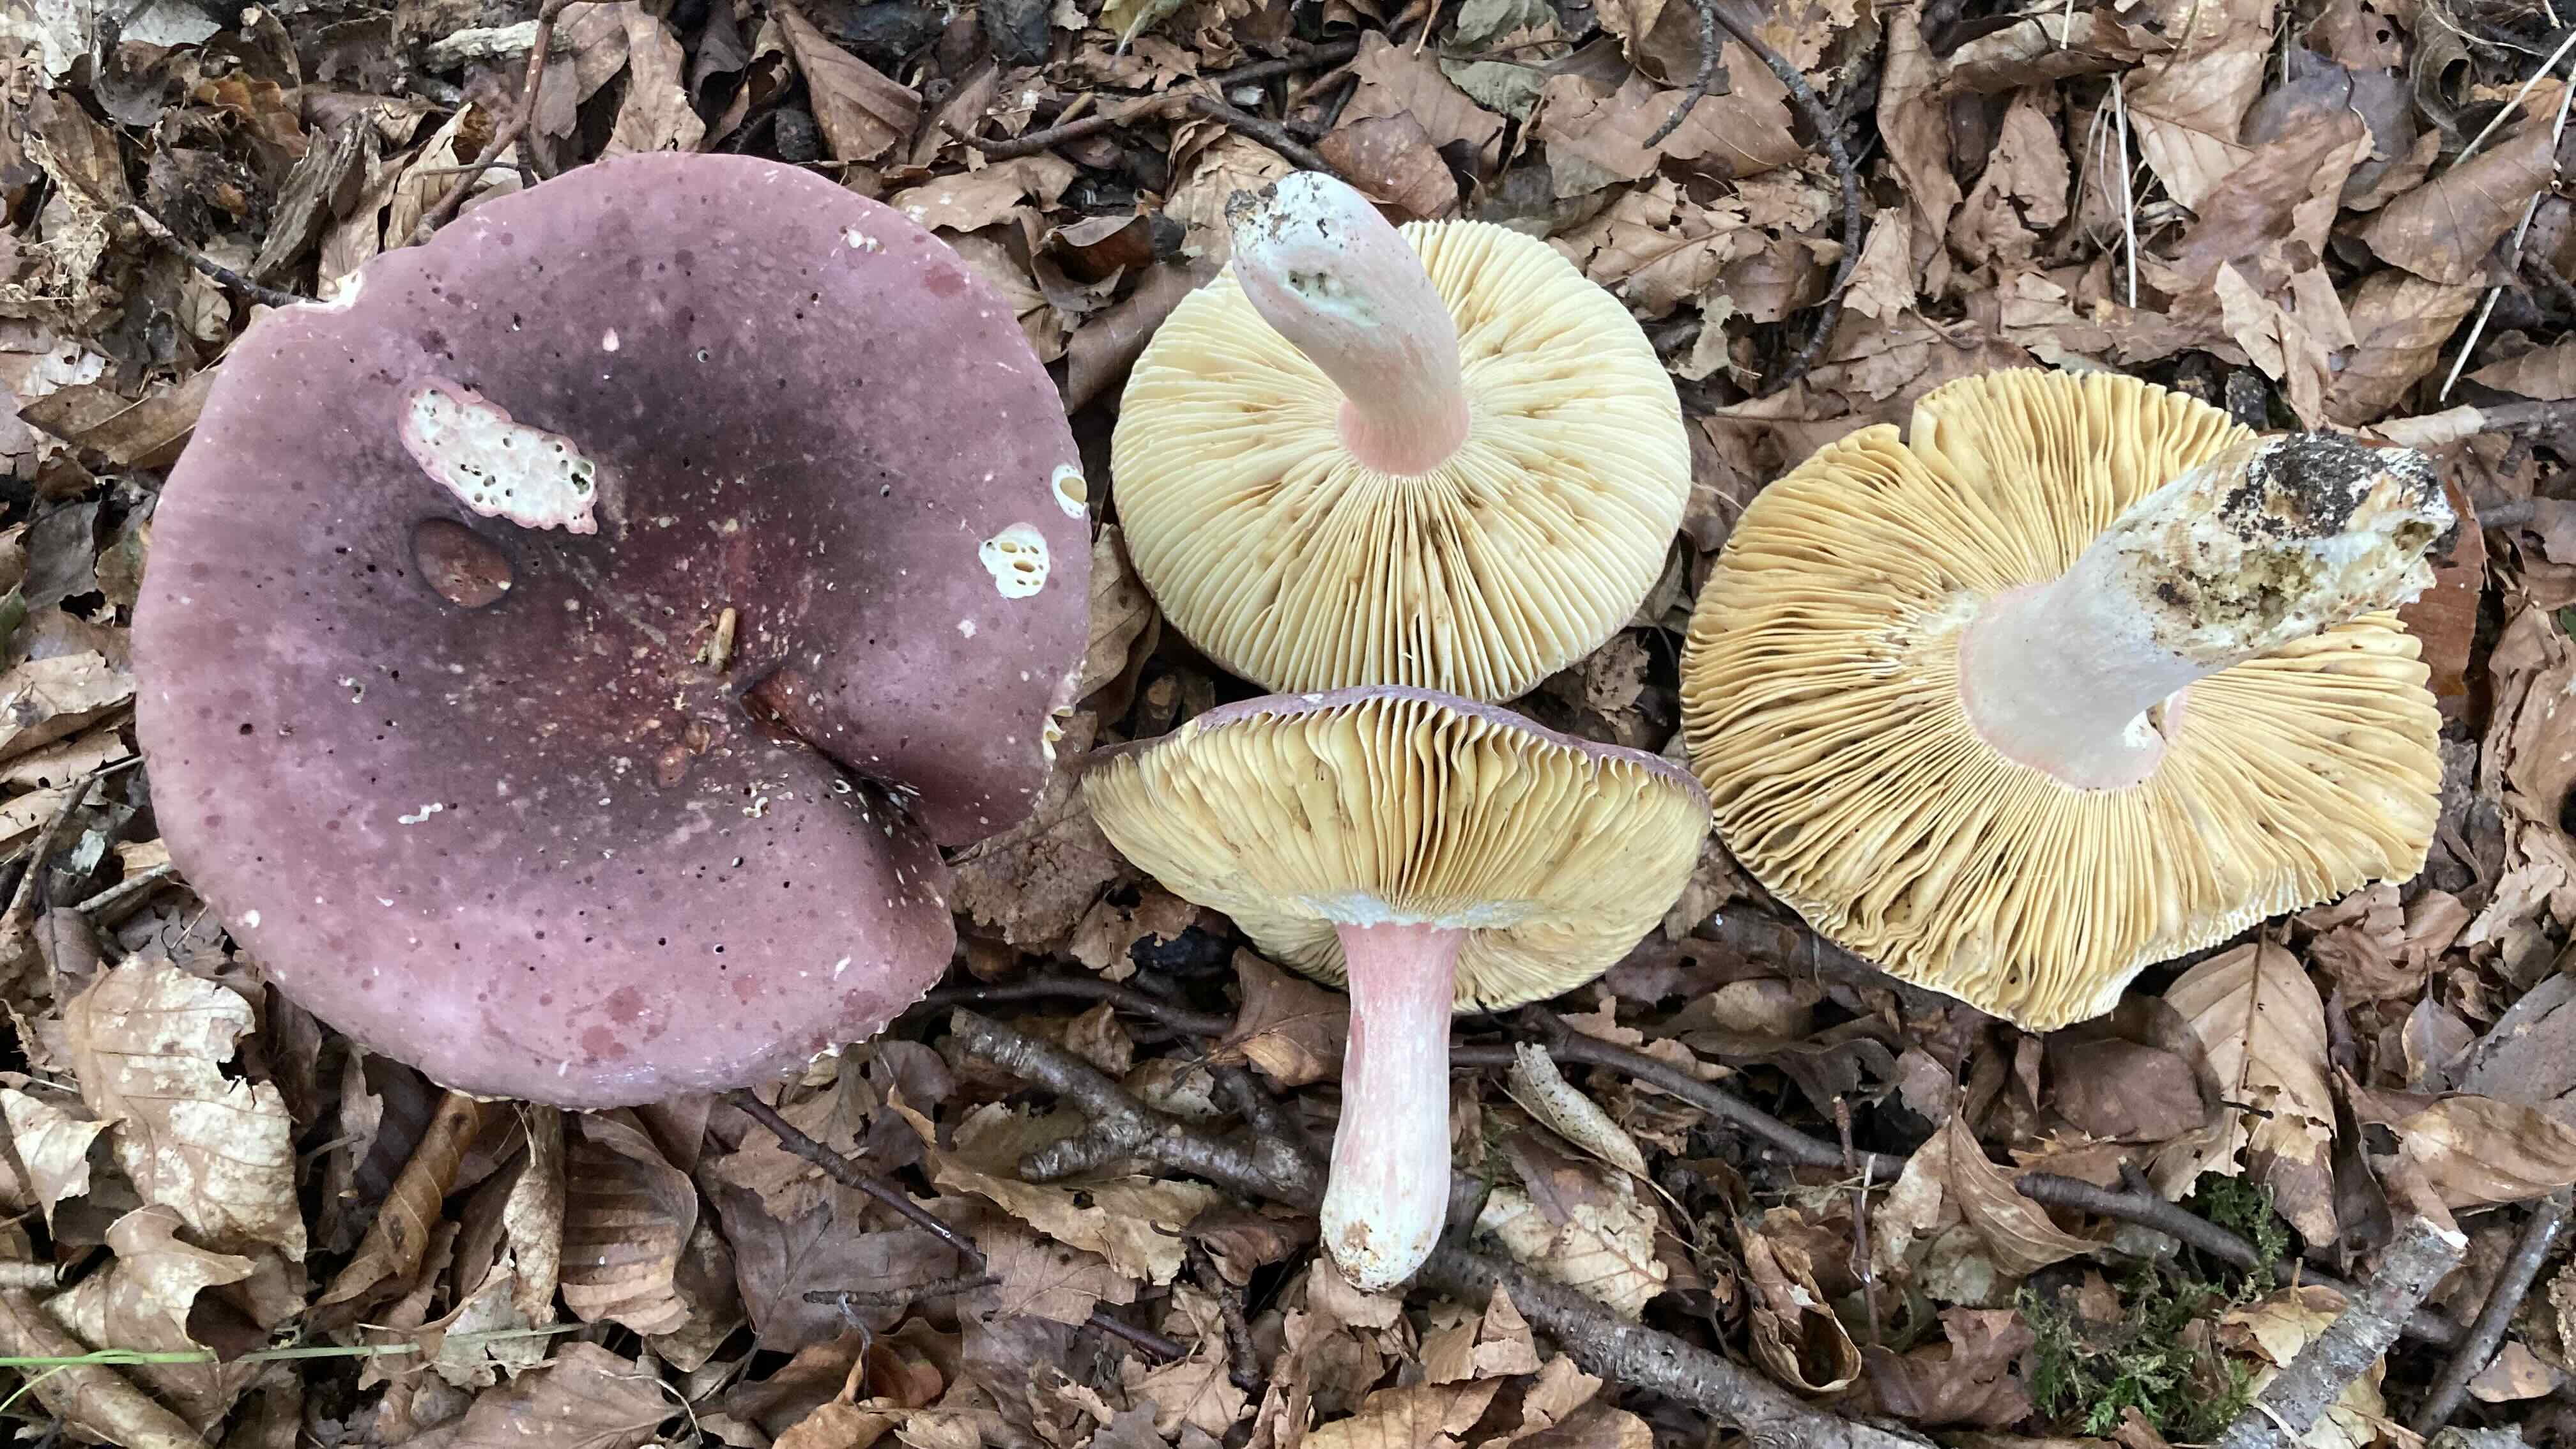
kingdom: Fungi
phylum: Basidiomycota
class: Agaricomycetes
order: Russulales
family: Russulaceae
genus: Russula
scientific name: Russula olivacea
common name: stor skørhat
